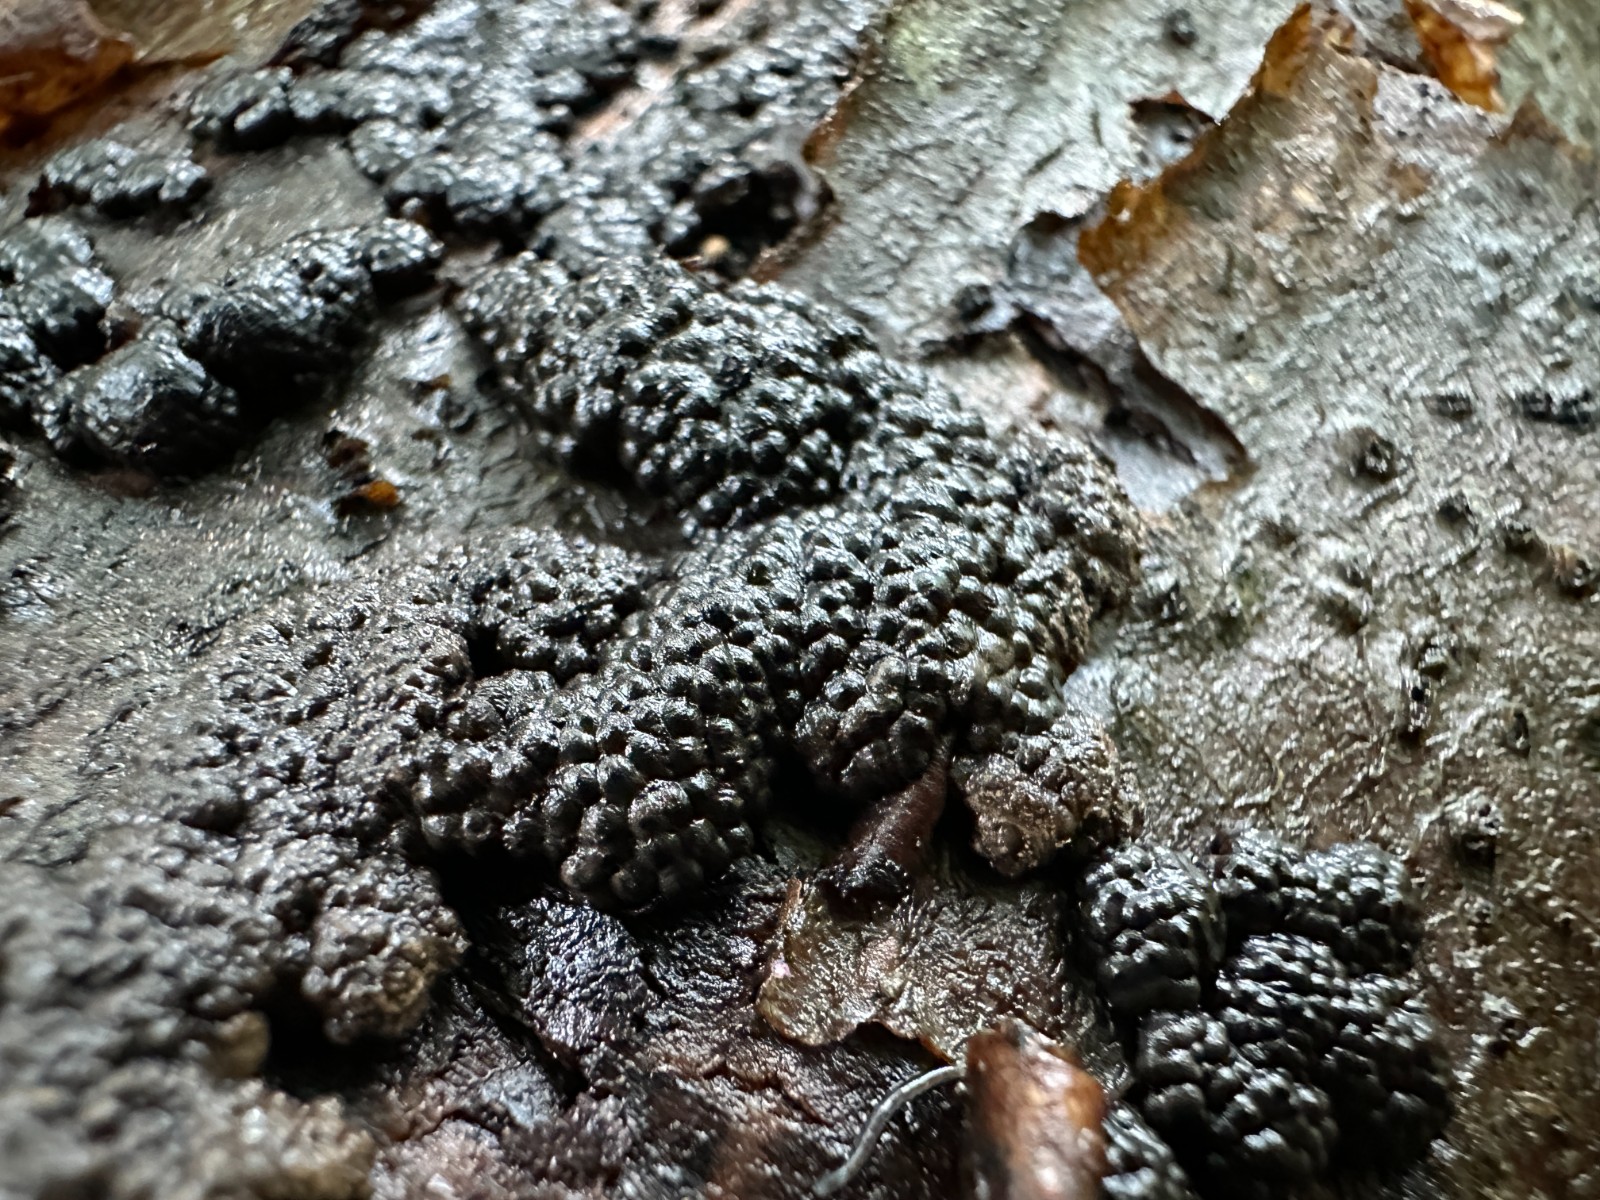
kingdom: Fungi
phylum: Ascomycota
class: Sordariomycetes
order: Xylariales
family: Hypoxylaceae
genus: Jackrogersella
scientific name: Jackrogersella cohaerens
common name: sammenflydende kulbær
